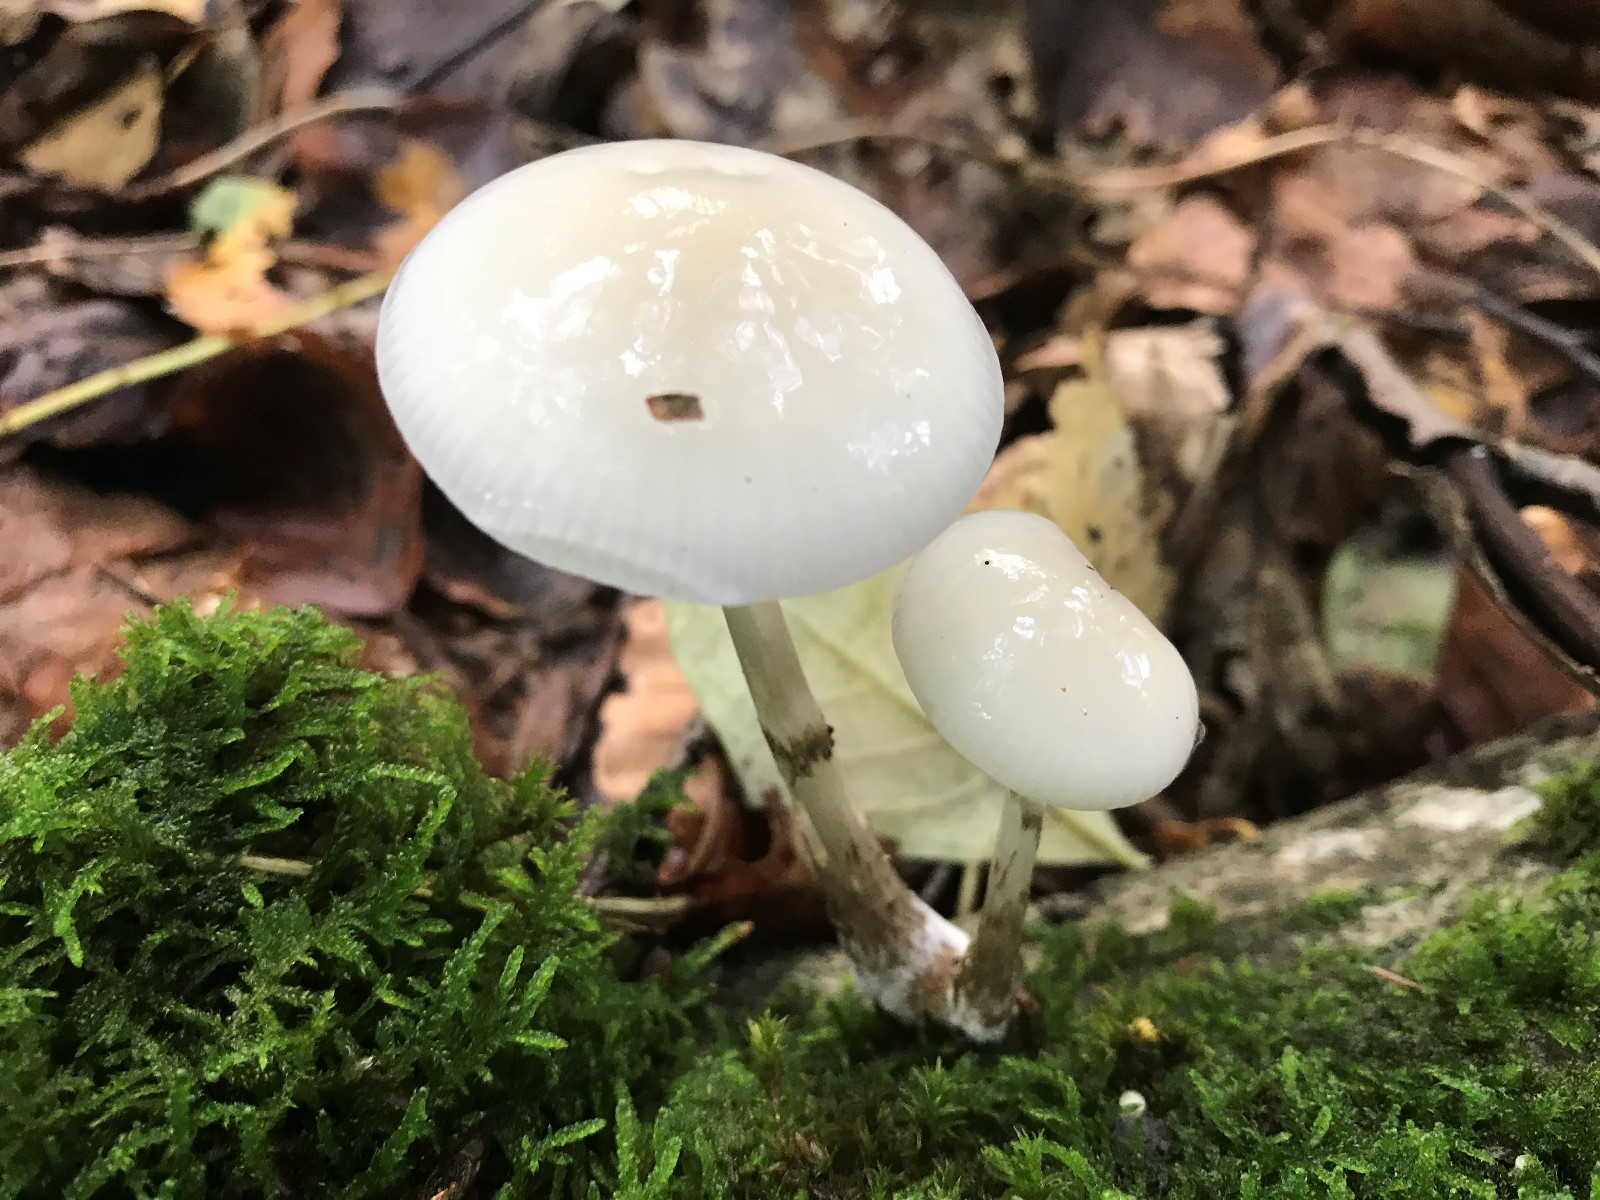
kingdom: Fungi
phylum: Basidiomycota
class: Agaricomycetes
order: Agaricales
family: Physalacriaceae
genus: Mucidula
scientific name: Mucidula mucida
